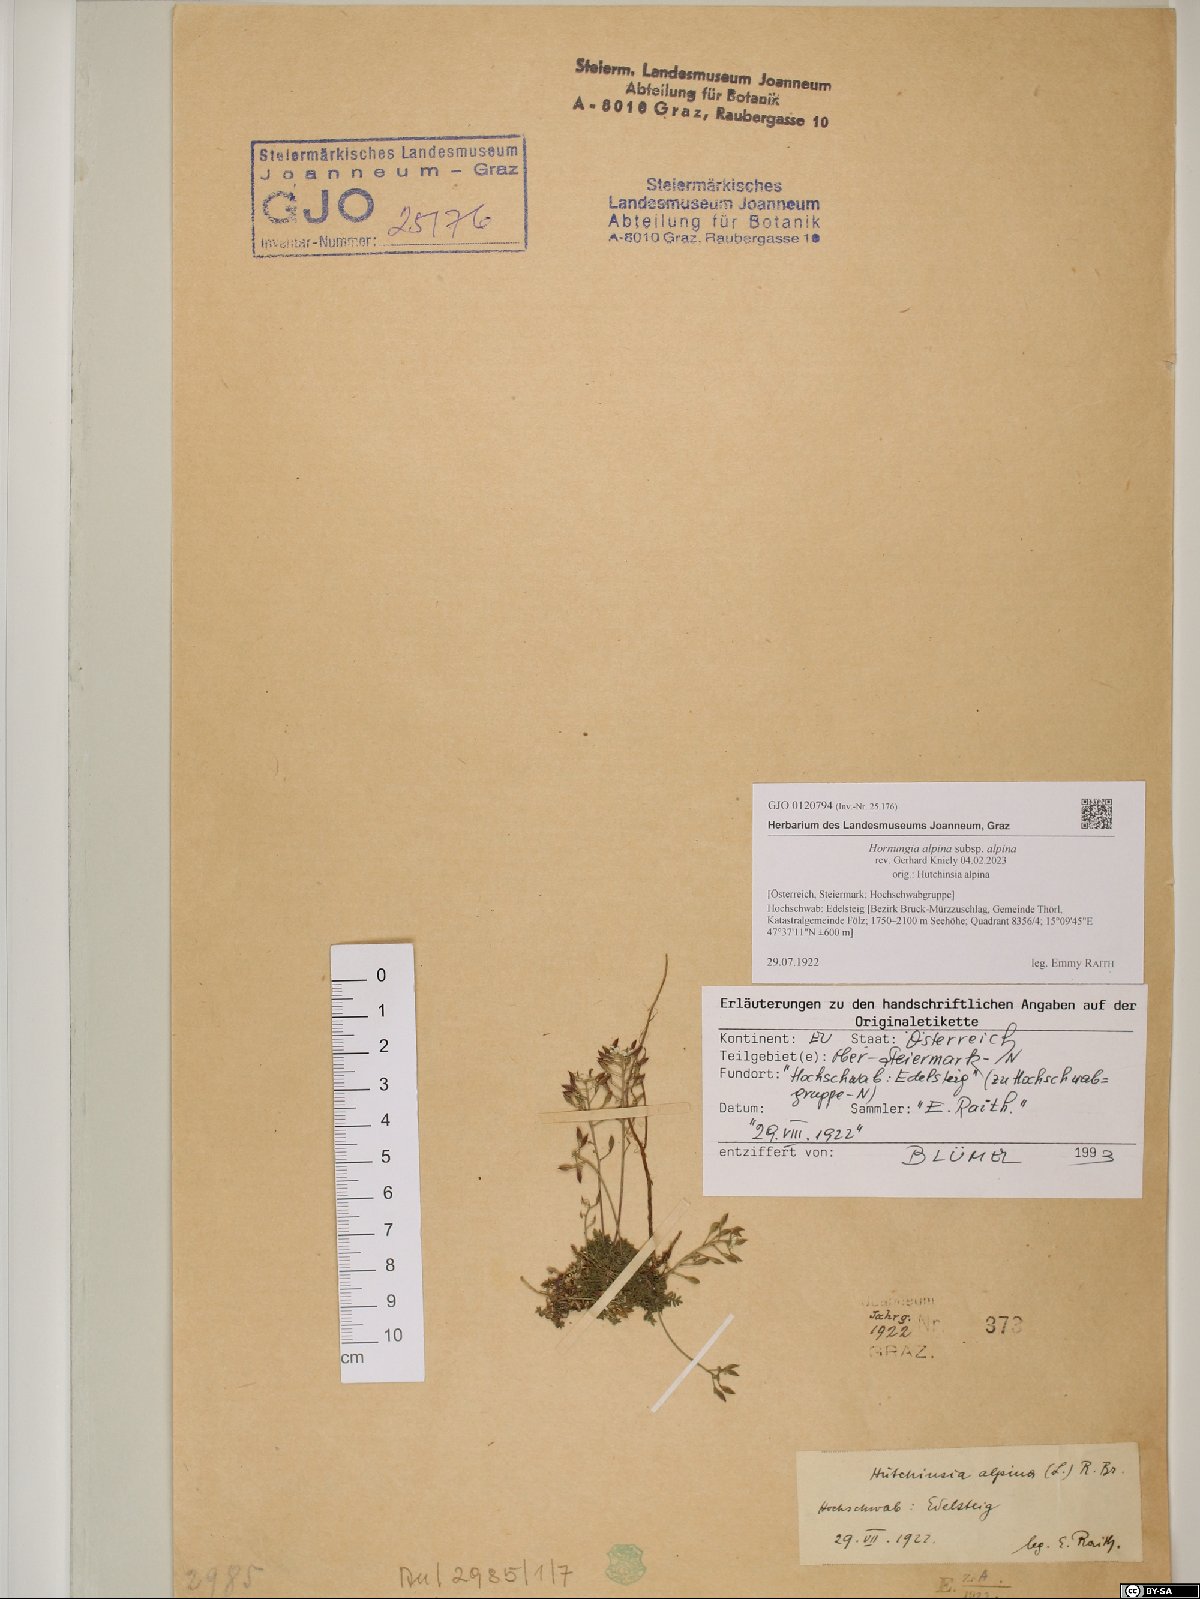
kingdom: Plantae
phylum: Tracheophyta
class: Magnoliopsida
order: Brassicales
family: Brassicaceae
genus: Hornungia
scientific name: Hornungia alpina
